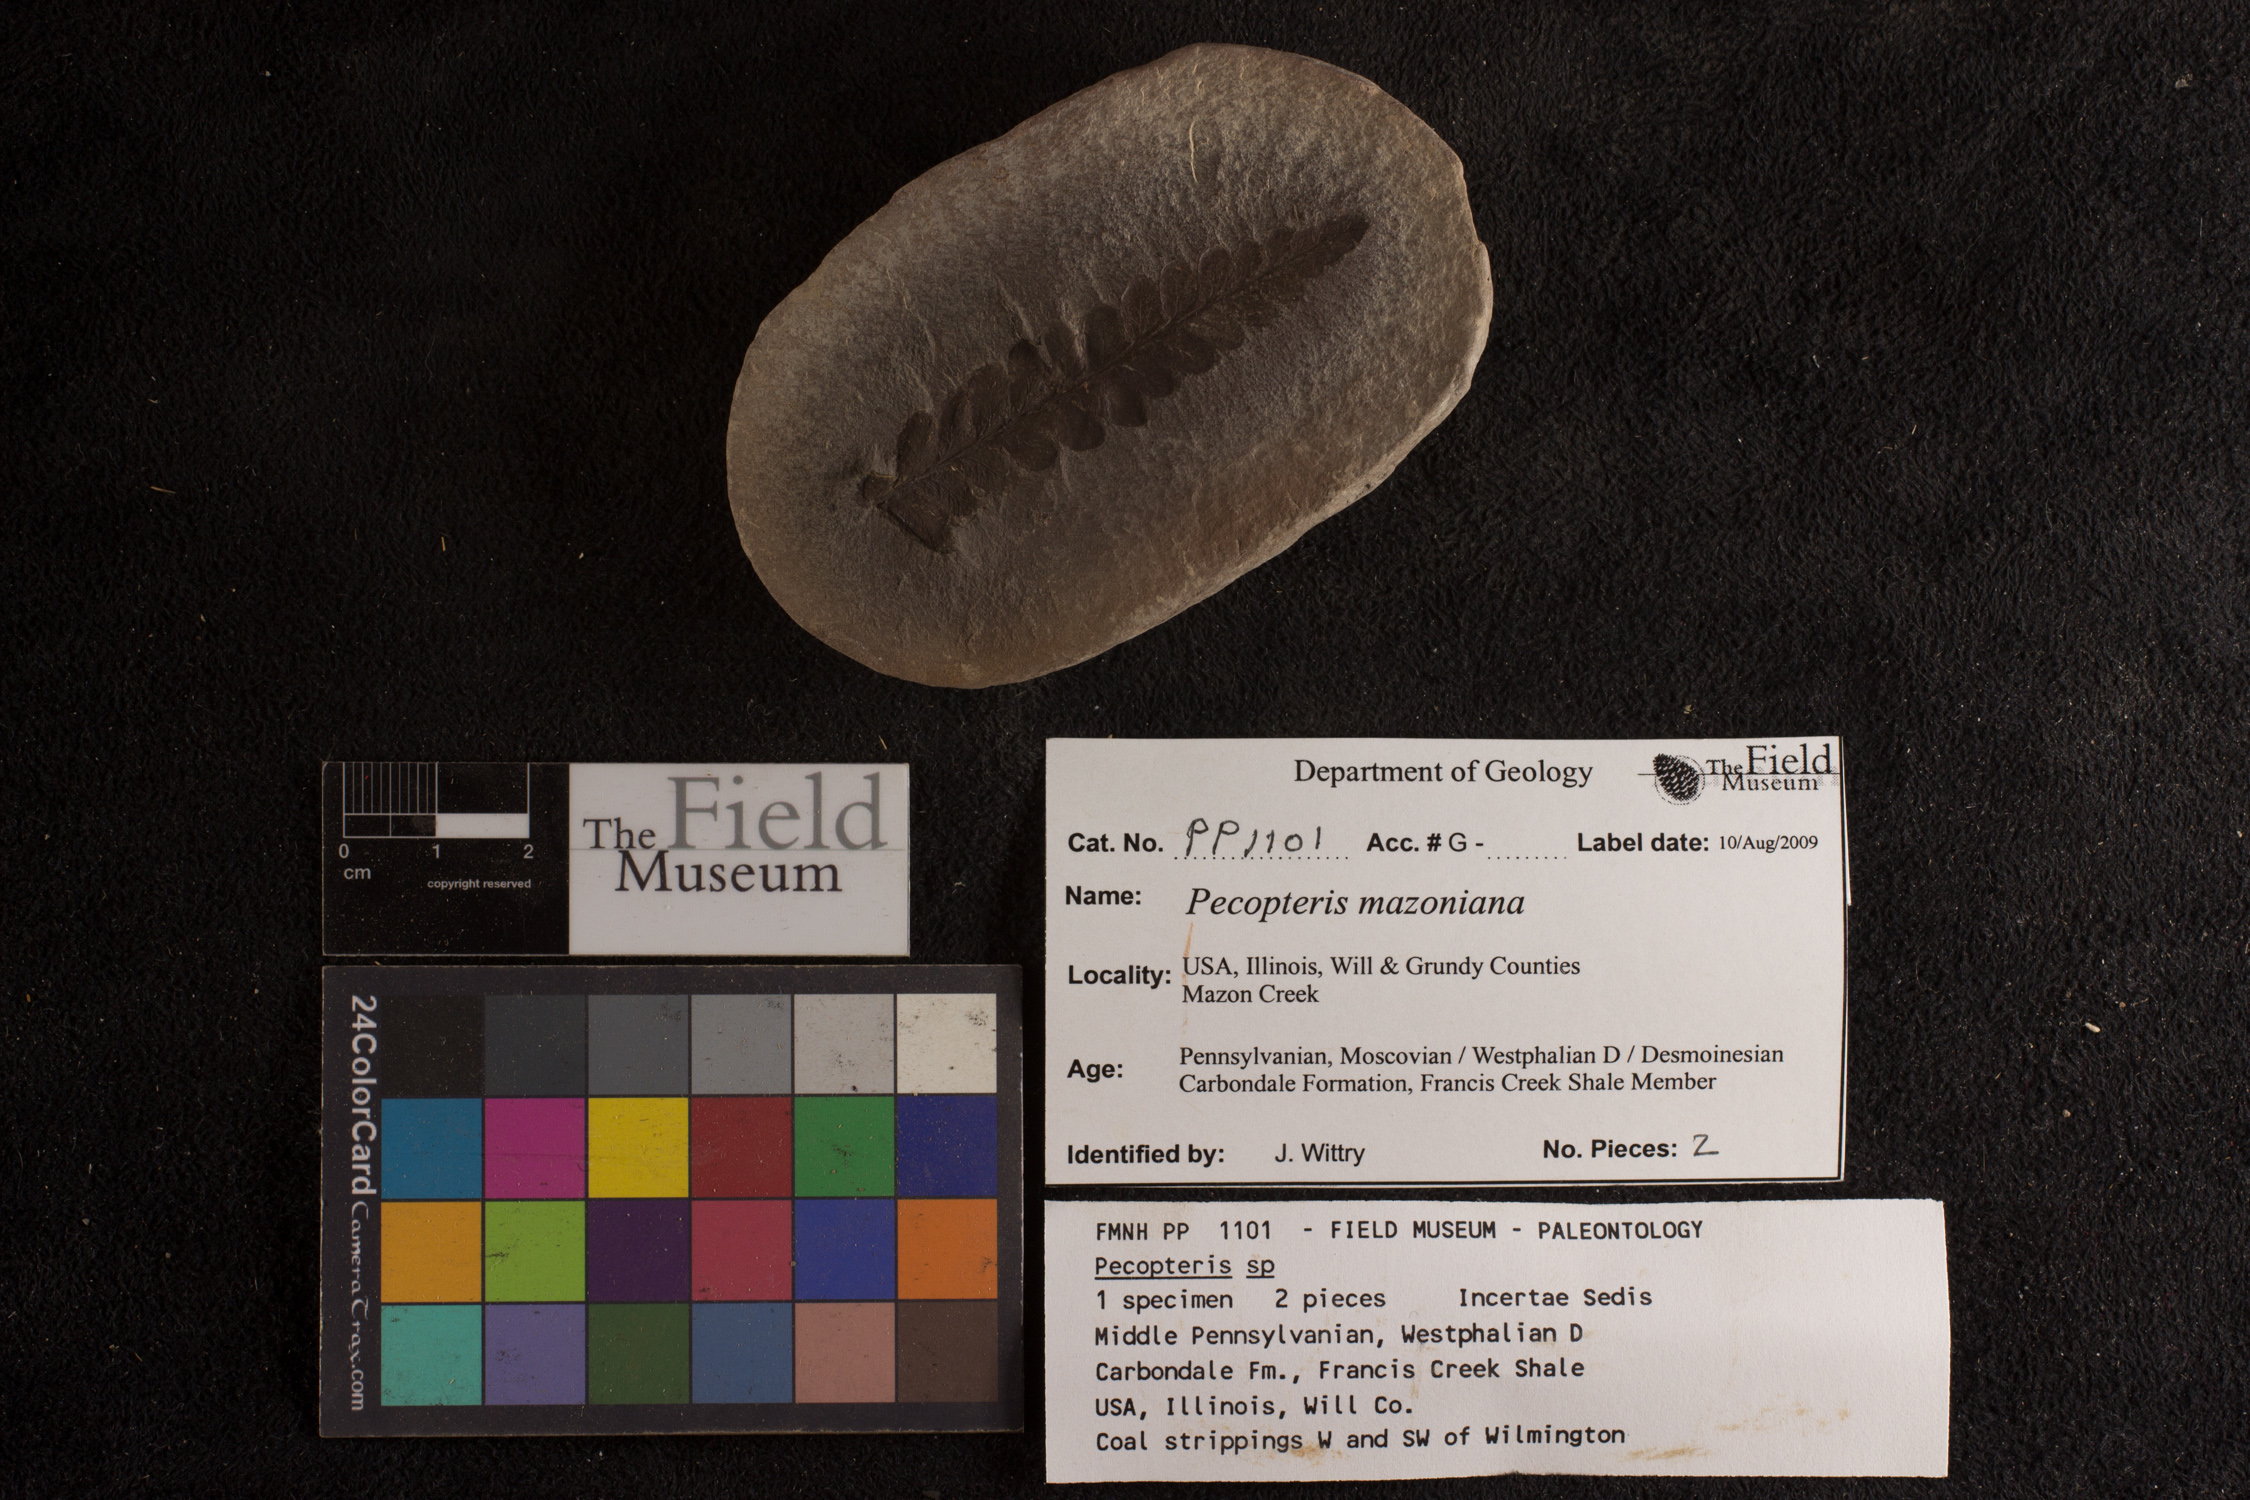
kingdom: Plantae
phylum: Tracheophyta
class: Polypodiopsida
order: Marattiales
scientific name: Marattiales
